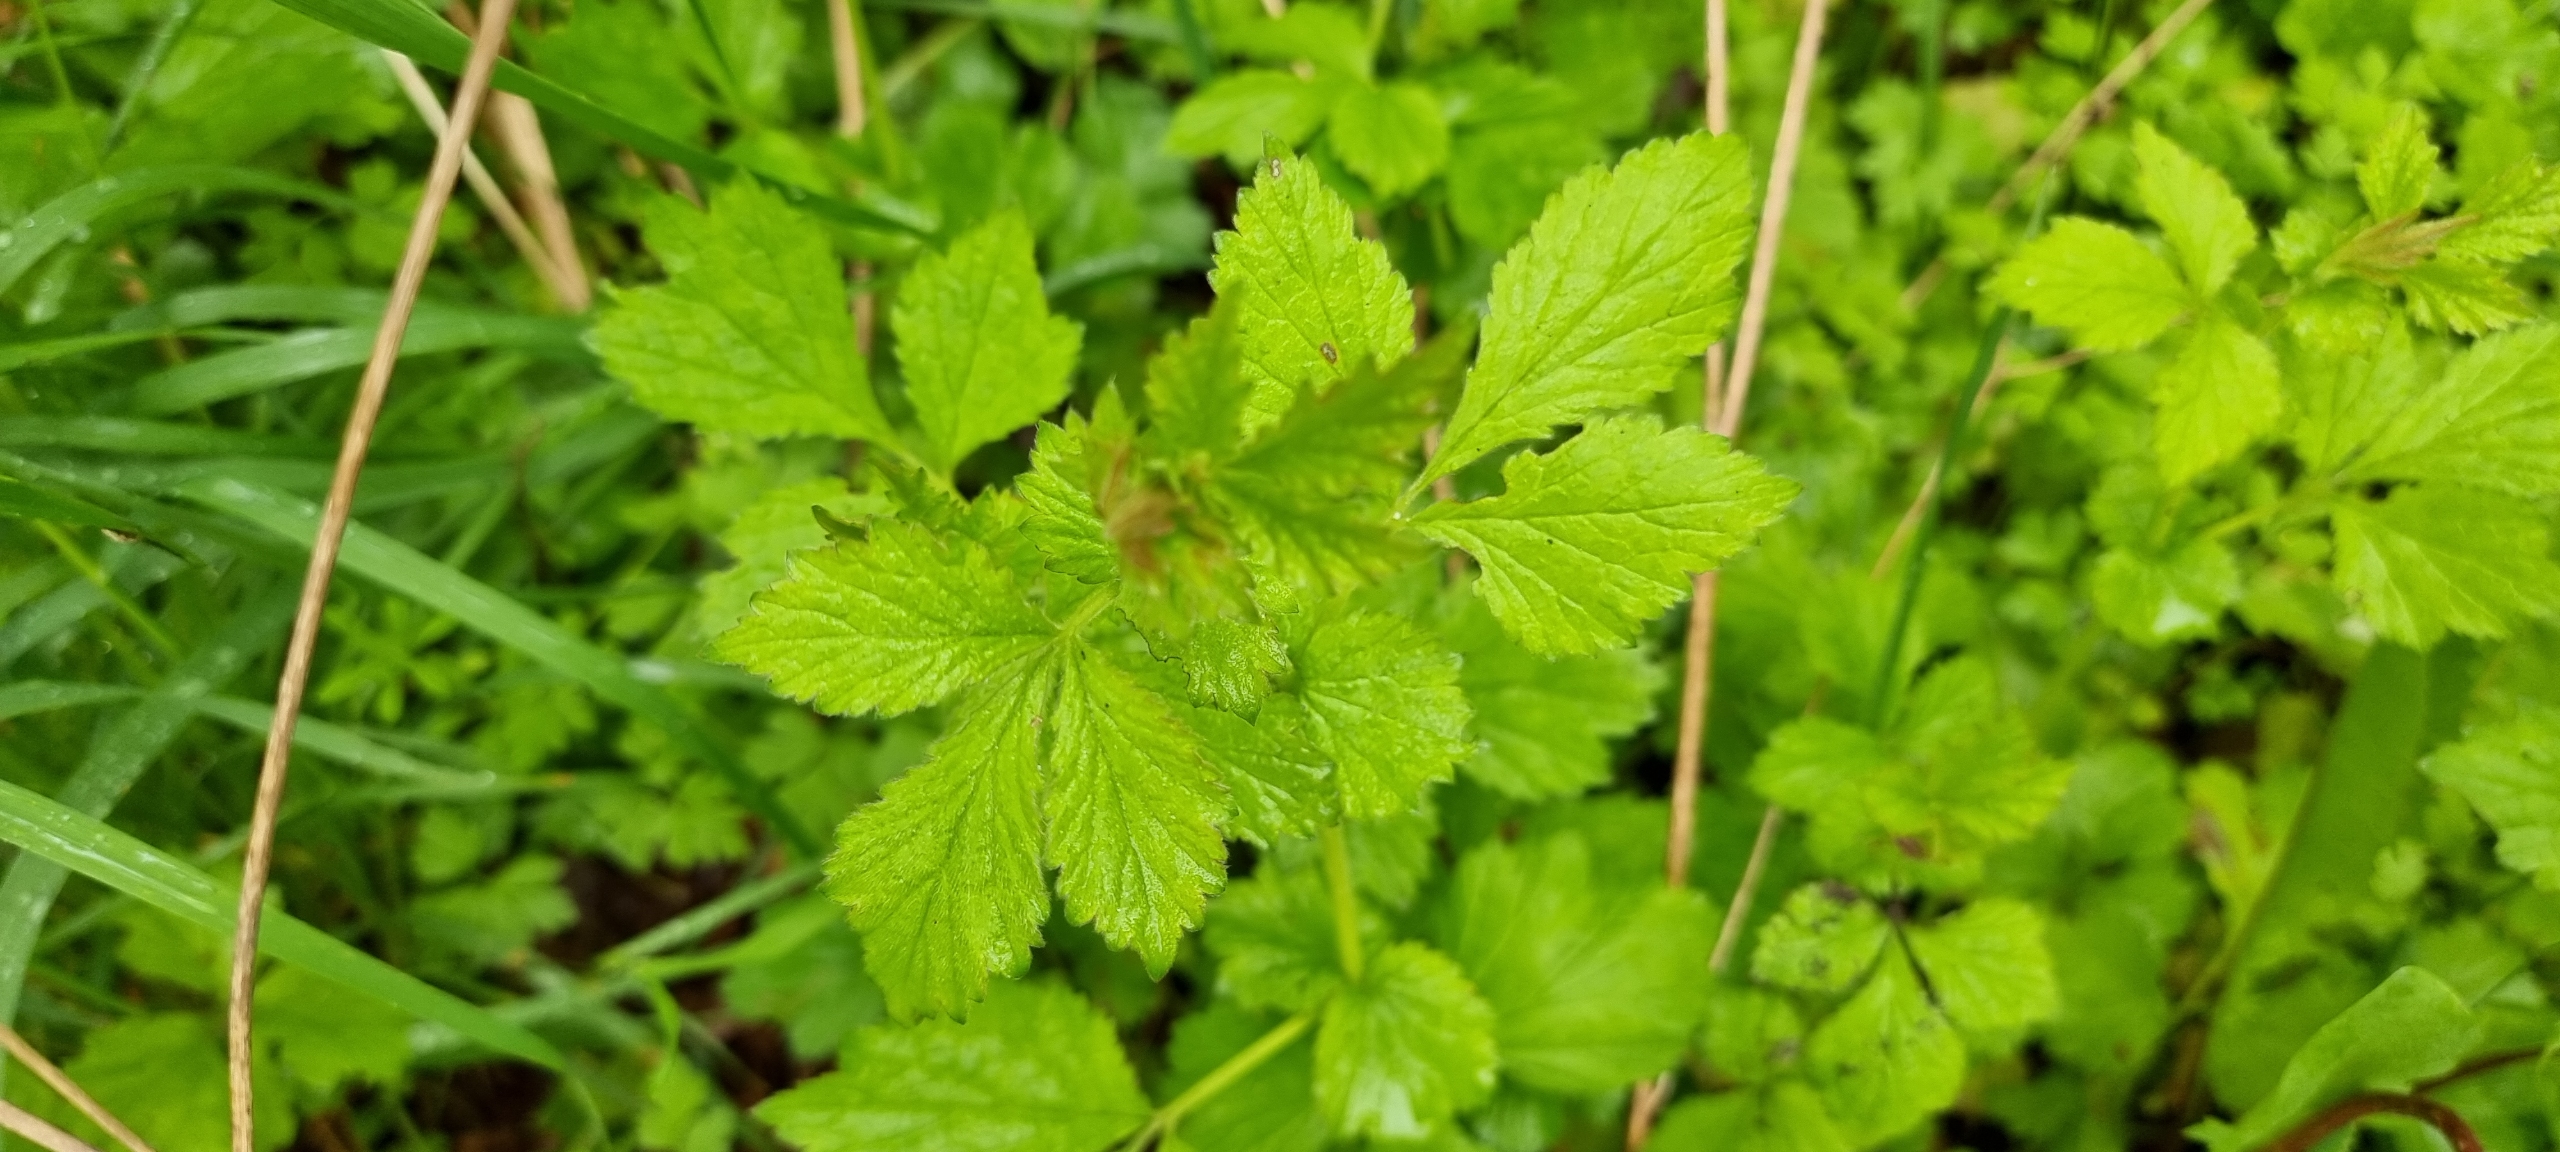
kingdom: Plantae
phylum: Tracheophyta
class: Magnoliopsida
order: Rosales
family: Rosaceae
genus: Geum
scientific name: Geum urbanum
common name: Feber-nellikerod
